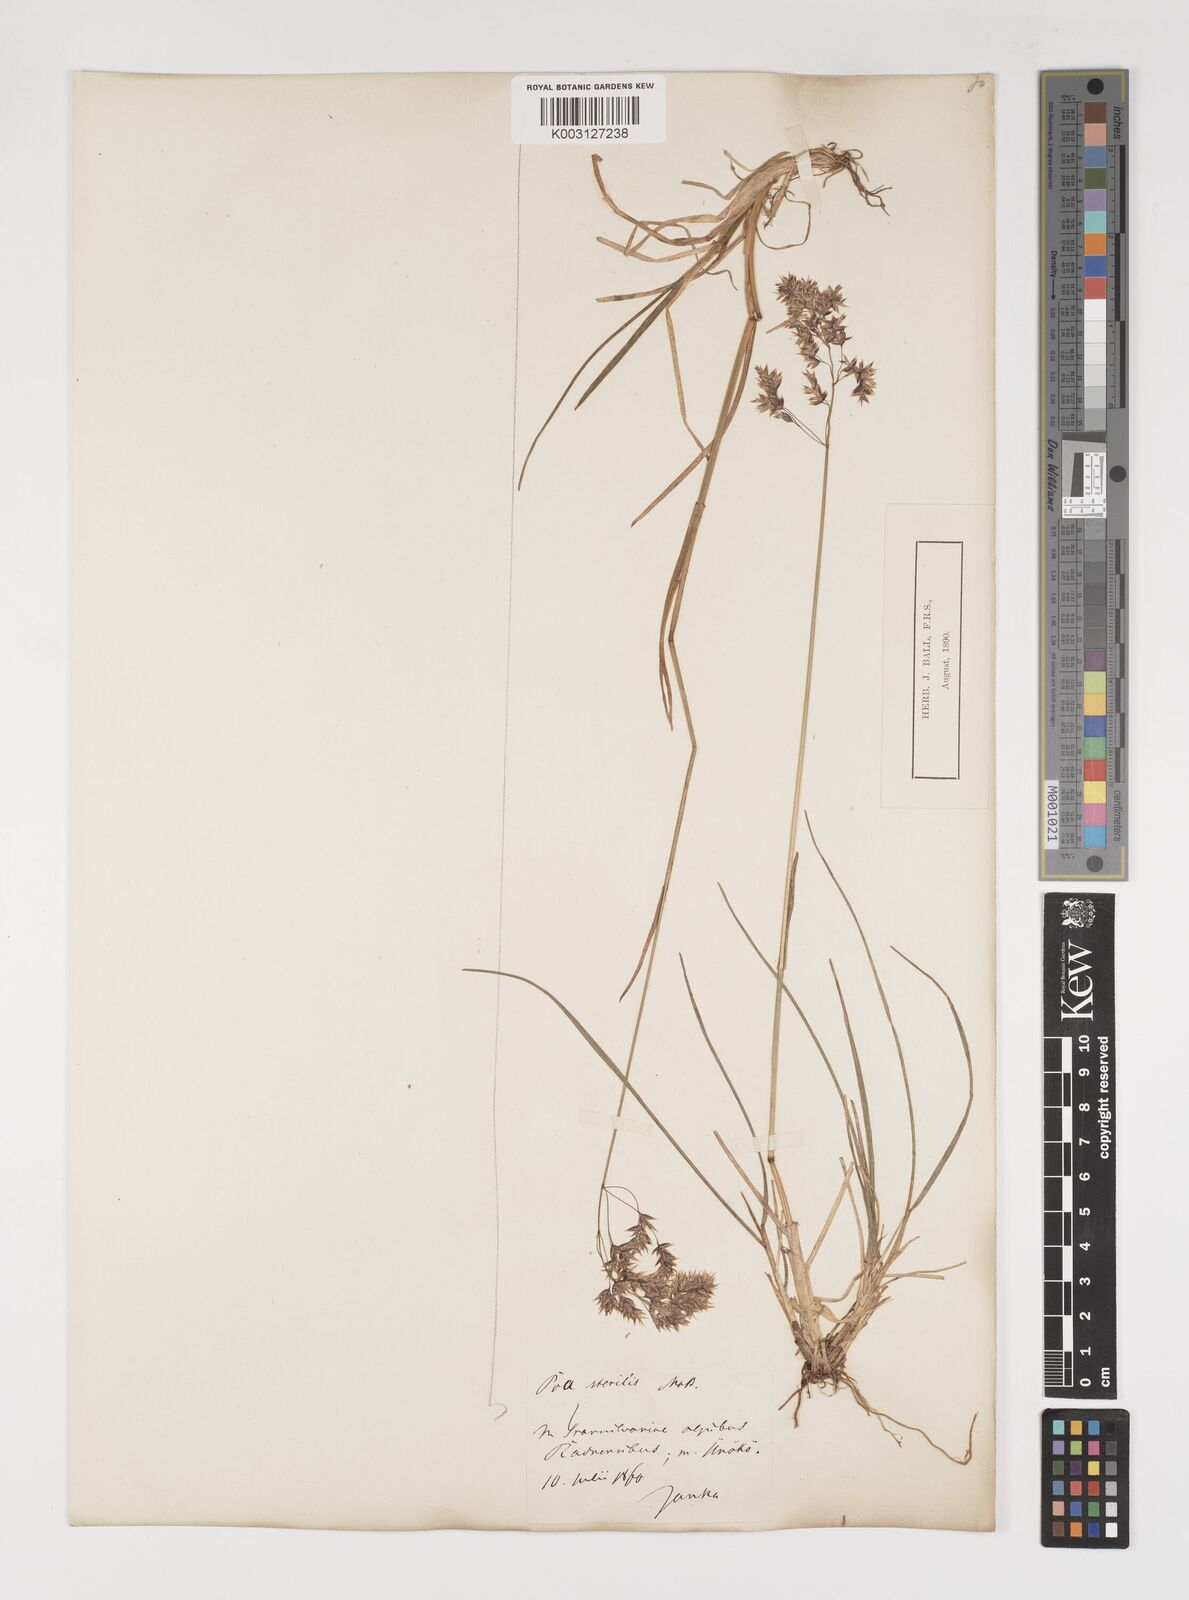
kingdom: Plantae
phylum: Tracheophyta
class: Liliopsida
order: Poales
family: Poaceae
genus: Poa
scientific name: Poa alpina
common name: Alpine bluegrass
